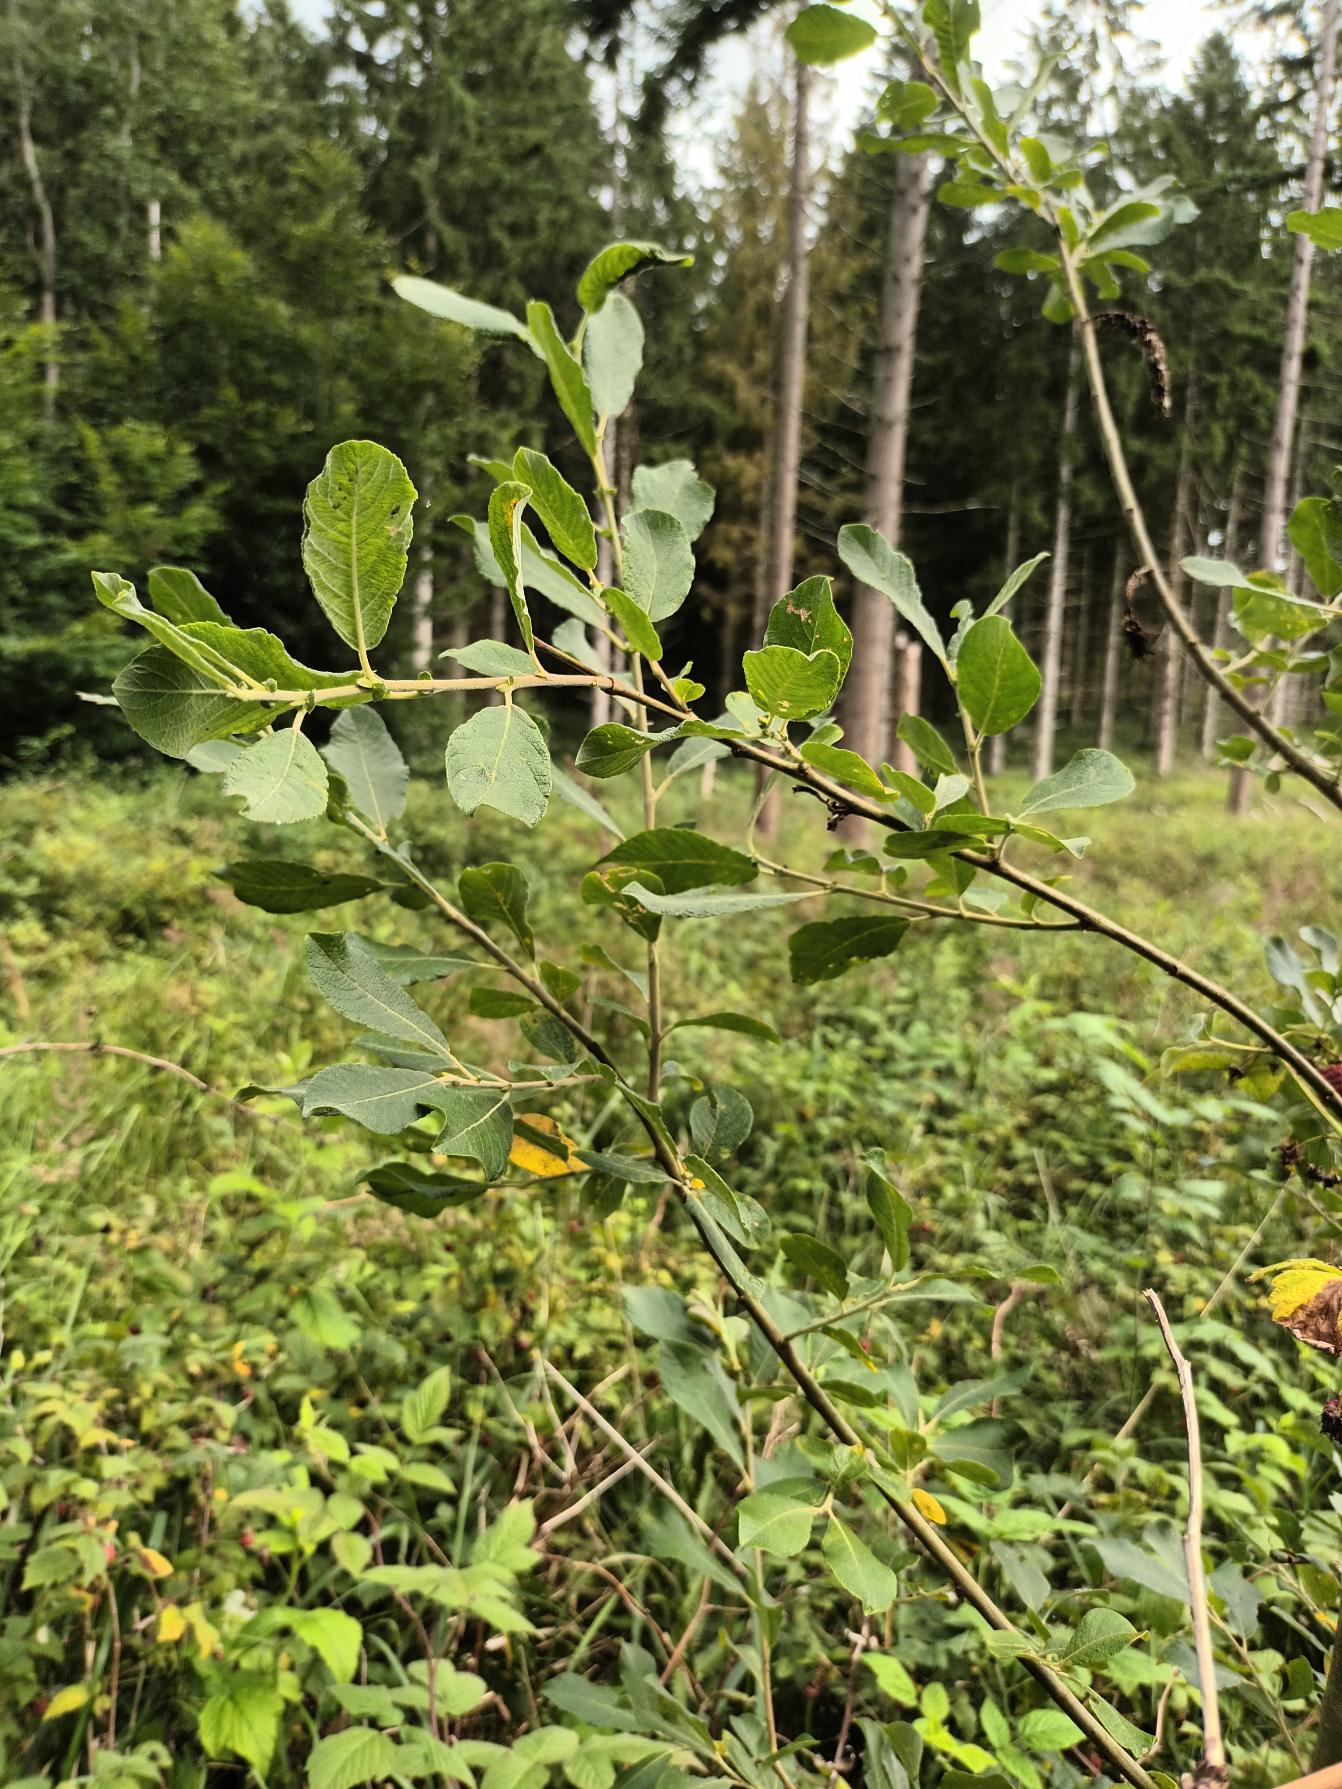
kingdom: Plantae
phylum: Tracheophyta
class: Magnoliopsida
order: Malpighiales
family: Salicaceae
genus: Salix
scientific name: Salix cinerea
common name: Grå-pil
